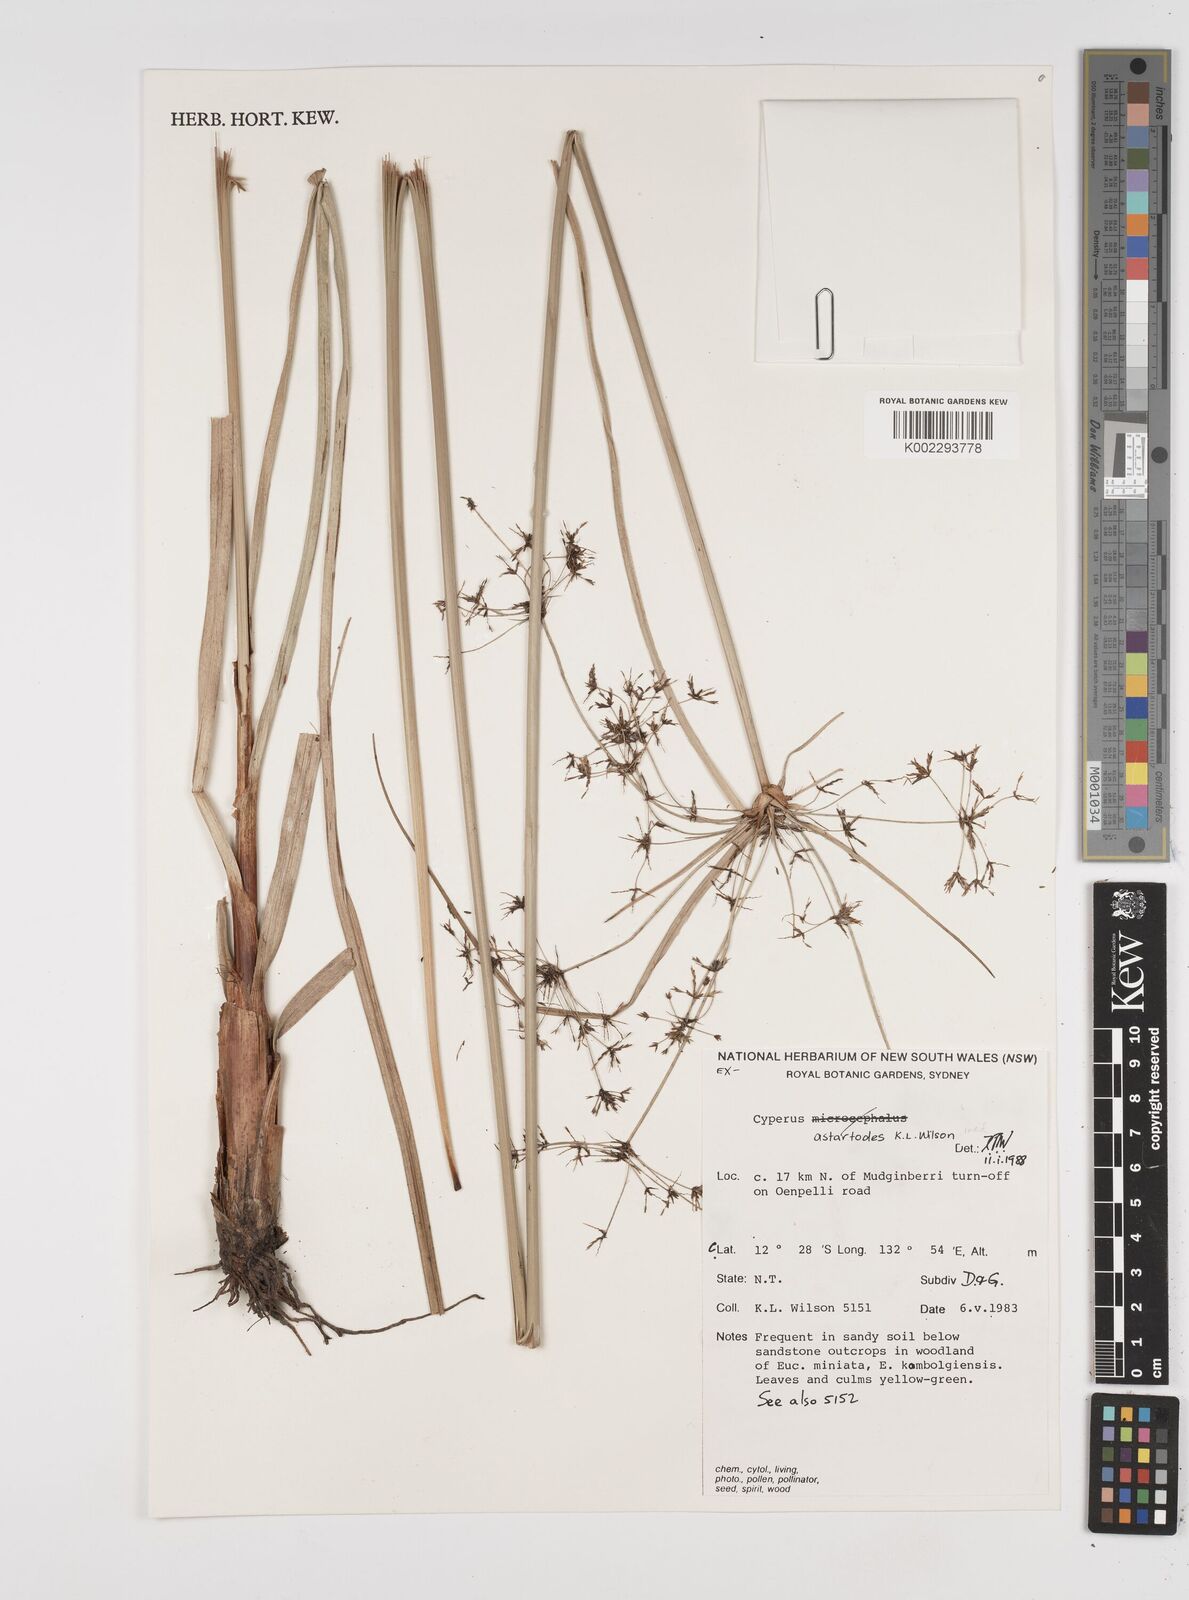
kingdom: Plantae
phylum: Tracheophyta
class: Liliopsida
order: Poales
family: Cyperaceae
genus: Cyperus
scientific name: Cyperus astartodes
